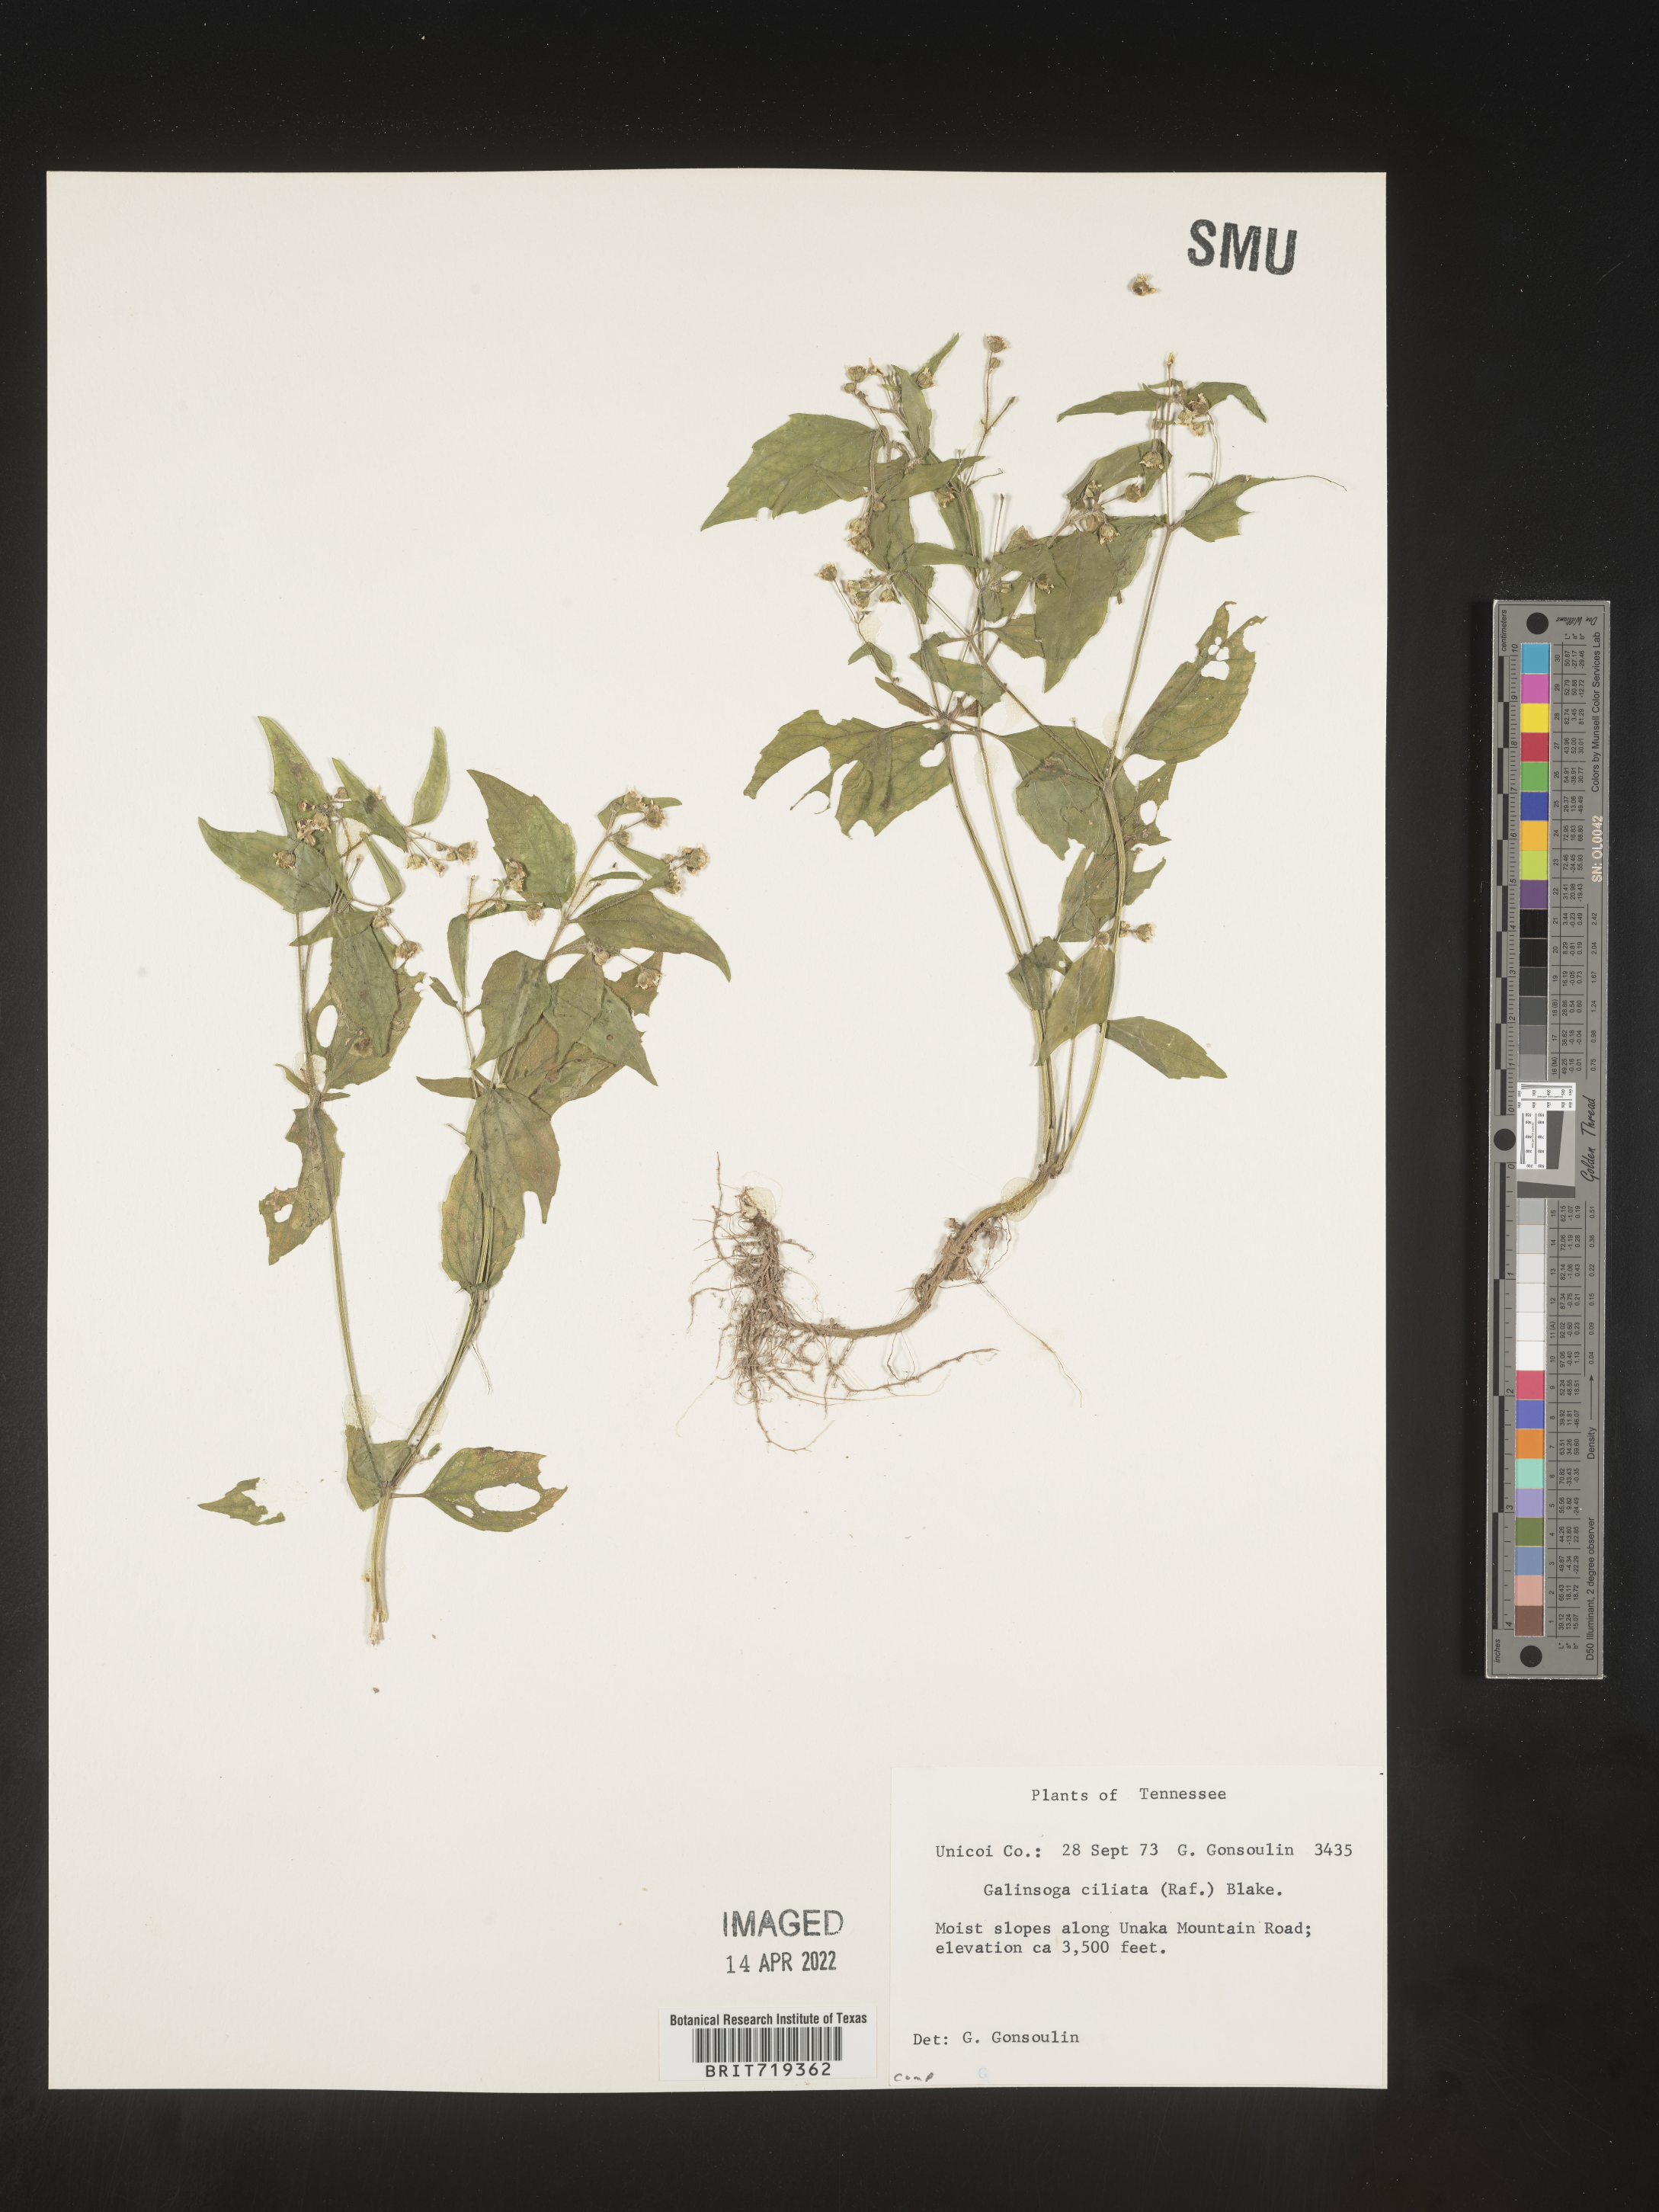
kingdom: Plantae
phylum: Tracheophyta
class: Magnoliopsida
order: Asterales
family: Asteraceae
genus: Galinsoga
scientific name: Galinsoga quadriradiata
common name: Shaggy soldier
